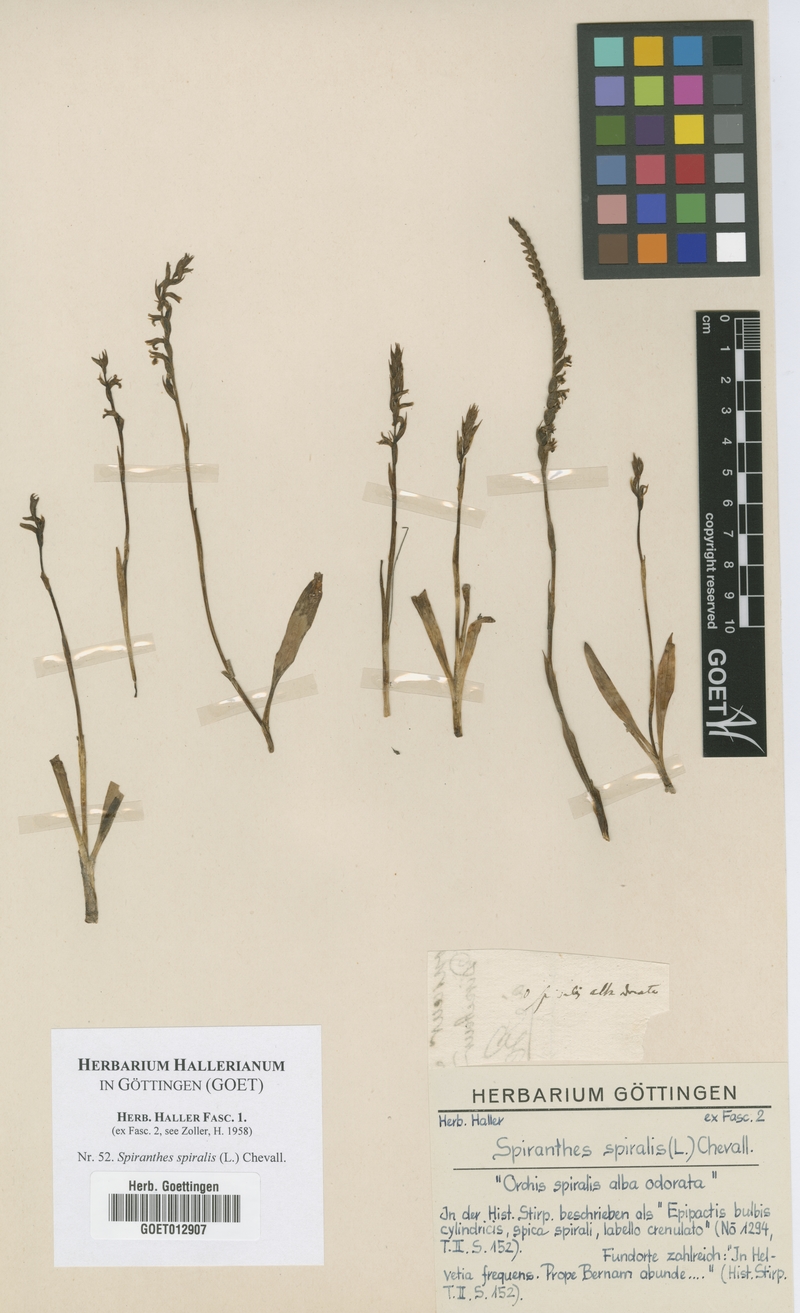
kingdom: Plantae
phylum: Tracheophyta
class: Liliopsida
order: Asparagales
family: Orchidaceae
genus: Spiranthes
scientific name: Spiranthes spiralis
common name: Autumn lady's-tresses
